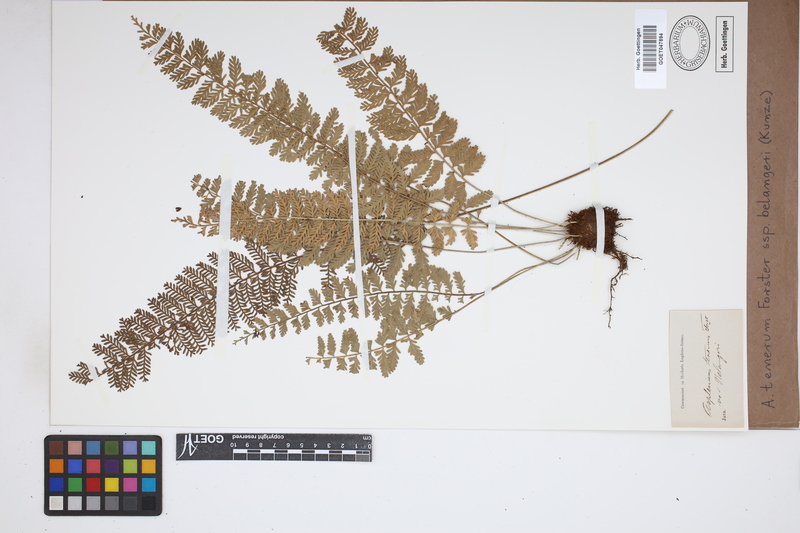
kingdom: Plantae
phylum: Tracheophyta
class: Polypodiopsida
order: Polypodiales
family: Aspleniaceae
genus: Asplenium
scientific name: Asplenium tenerum
